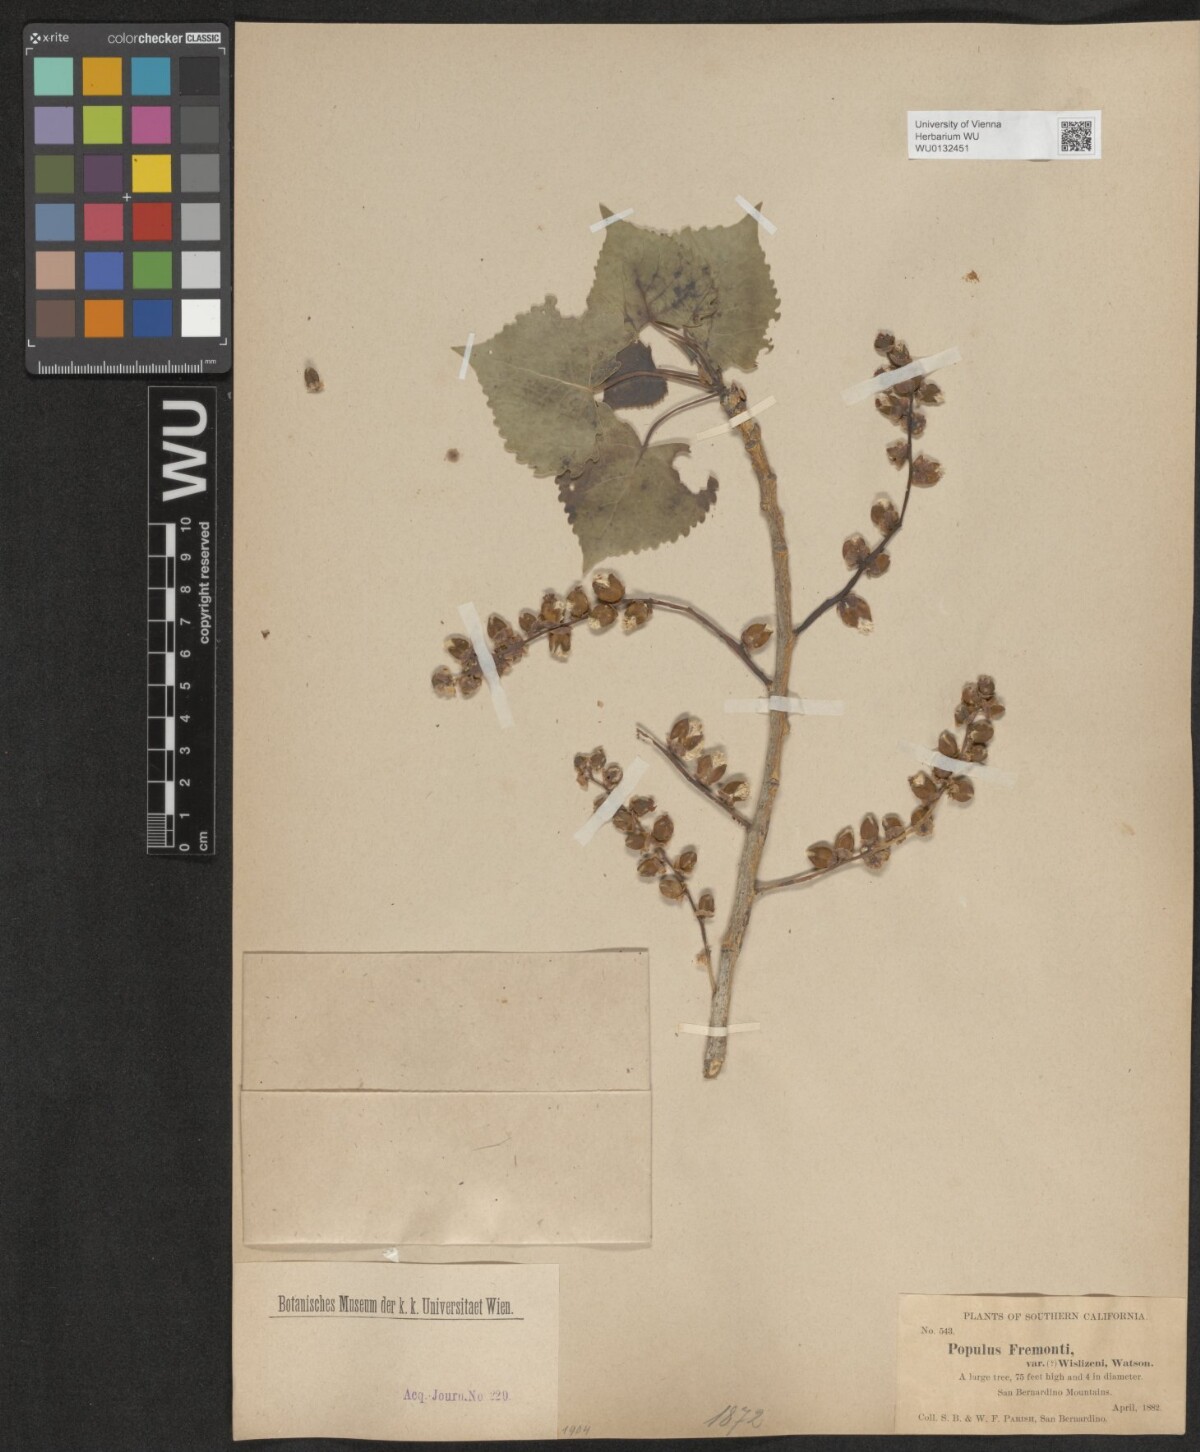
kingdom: Plantae
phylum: Tracheophyta
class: Magnoliopsida
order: Malpighiales
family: Salicaceae
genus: Populus
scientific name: Populus deltoides
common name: Eastern cottonwood
